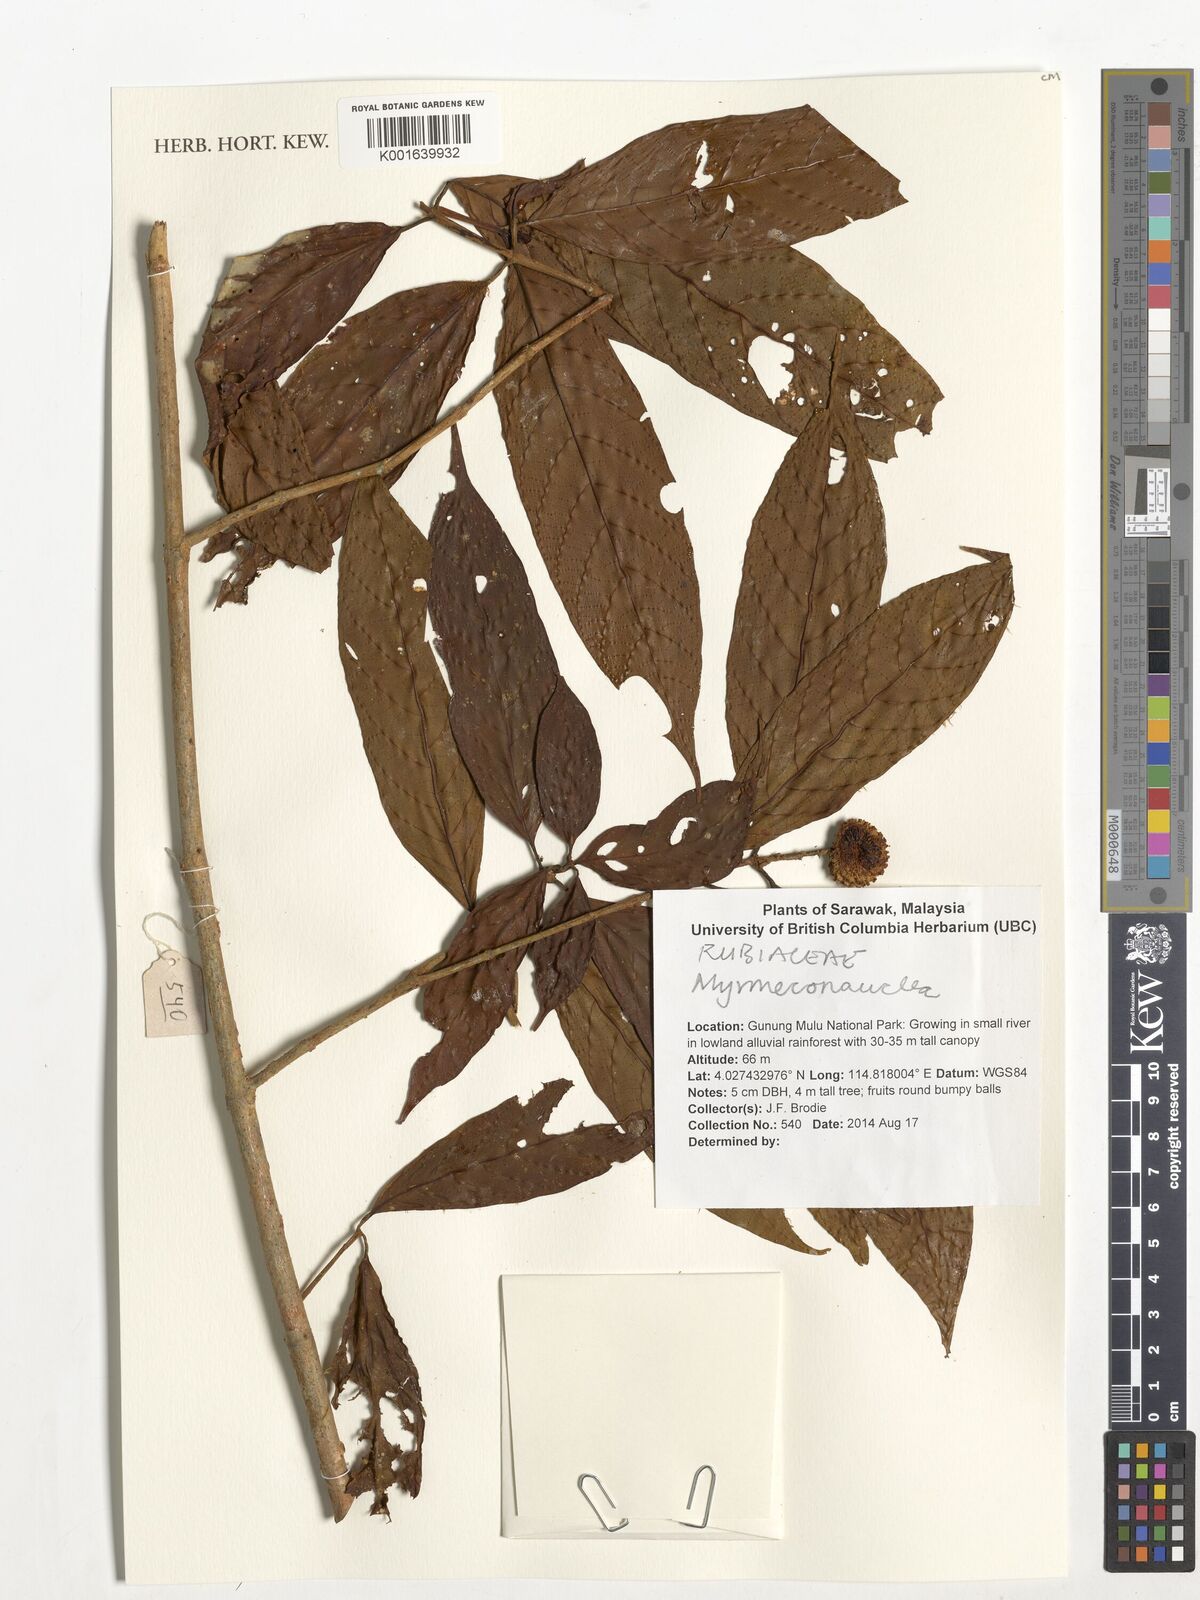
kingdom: Plantae
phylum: Tracheophyta
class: Magnoliopsida
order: Gentianales
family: Rubiaceae
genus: Myrmeconauclea
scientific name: Myrmeconauclea
